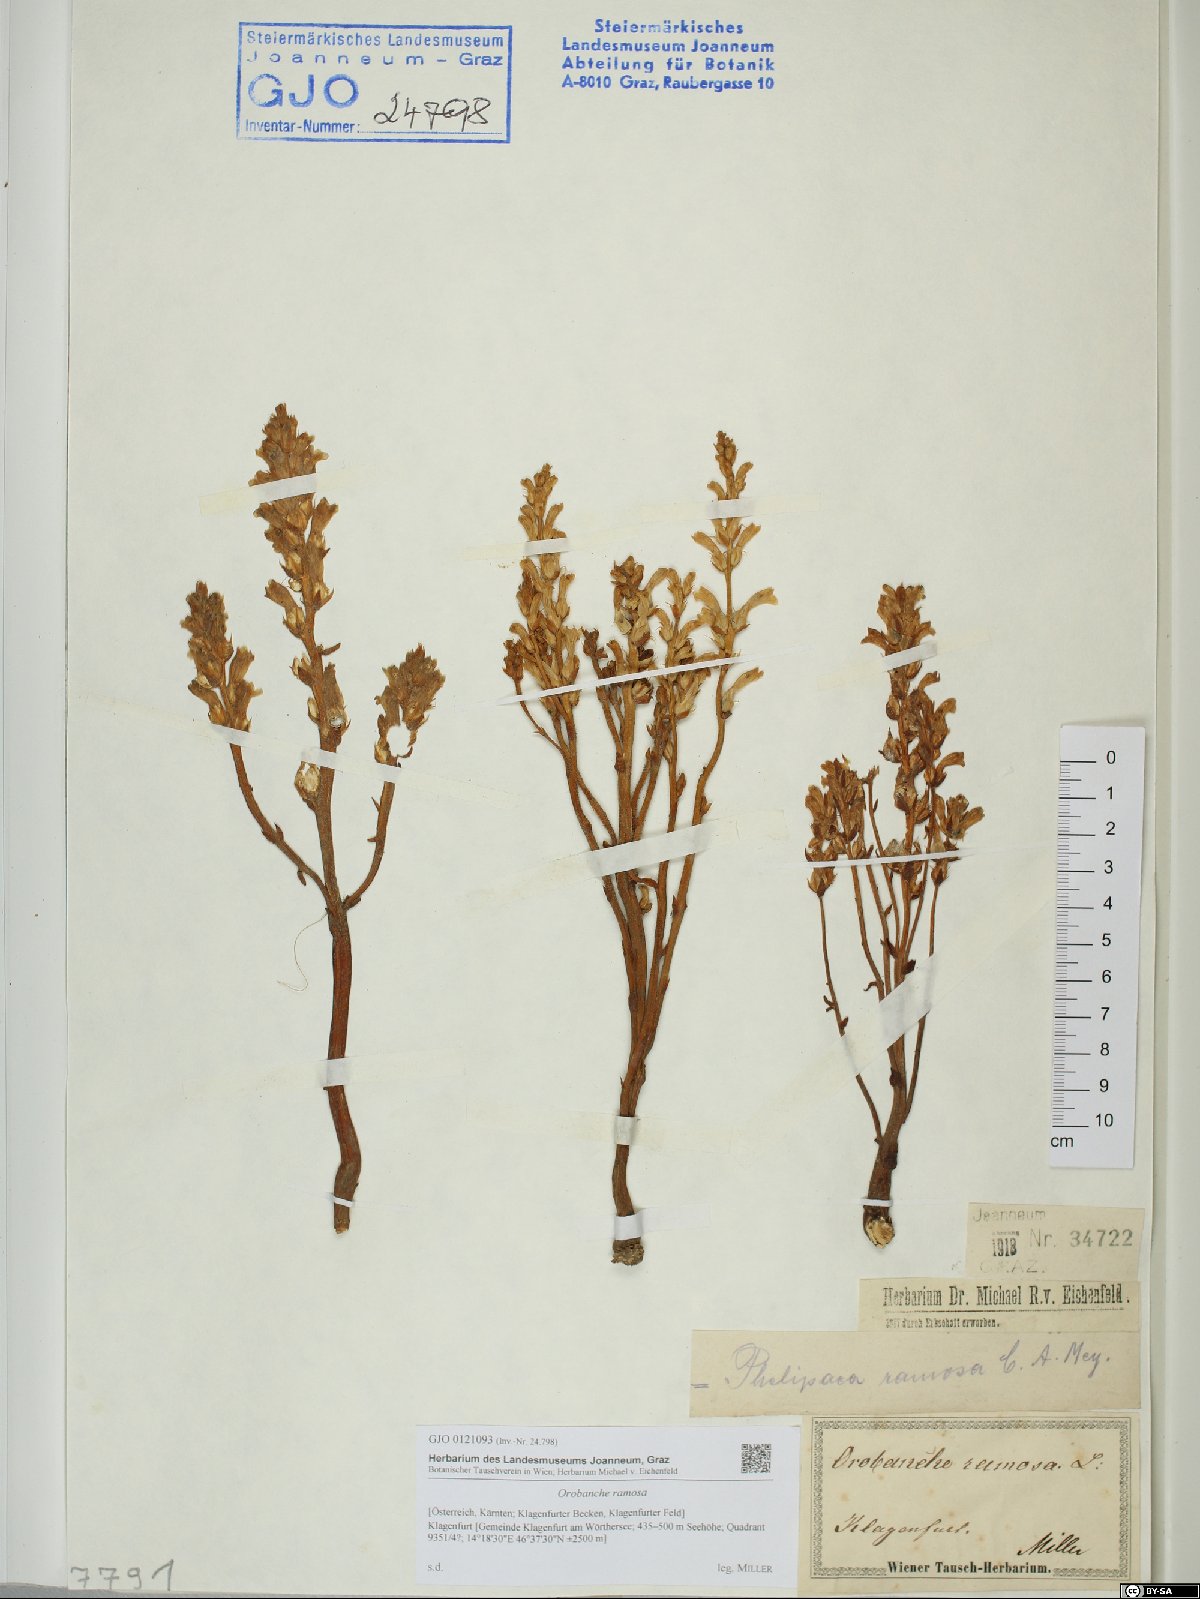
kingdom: Plantae
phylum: Tracheophyta
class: Magnoliopsida
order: Lamiales
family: Orobanchaceae
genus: Phelipanche
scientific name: Phelipanche ramosa
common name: Branched broomrape
